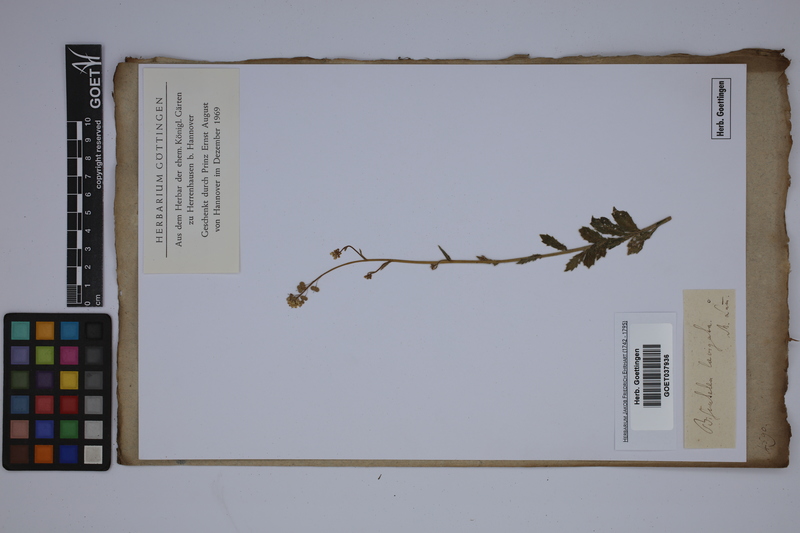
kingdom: Plantae
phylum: Tracheophyta
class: Magnoliopsida
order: Brassicales
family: Brassicaceae
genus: Biscutella
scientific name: Biscutella laevigata
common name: Buckler mustard
